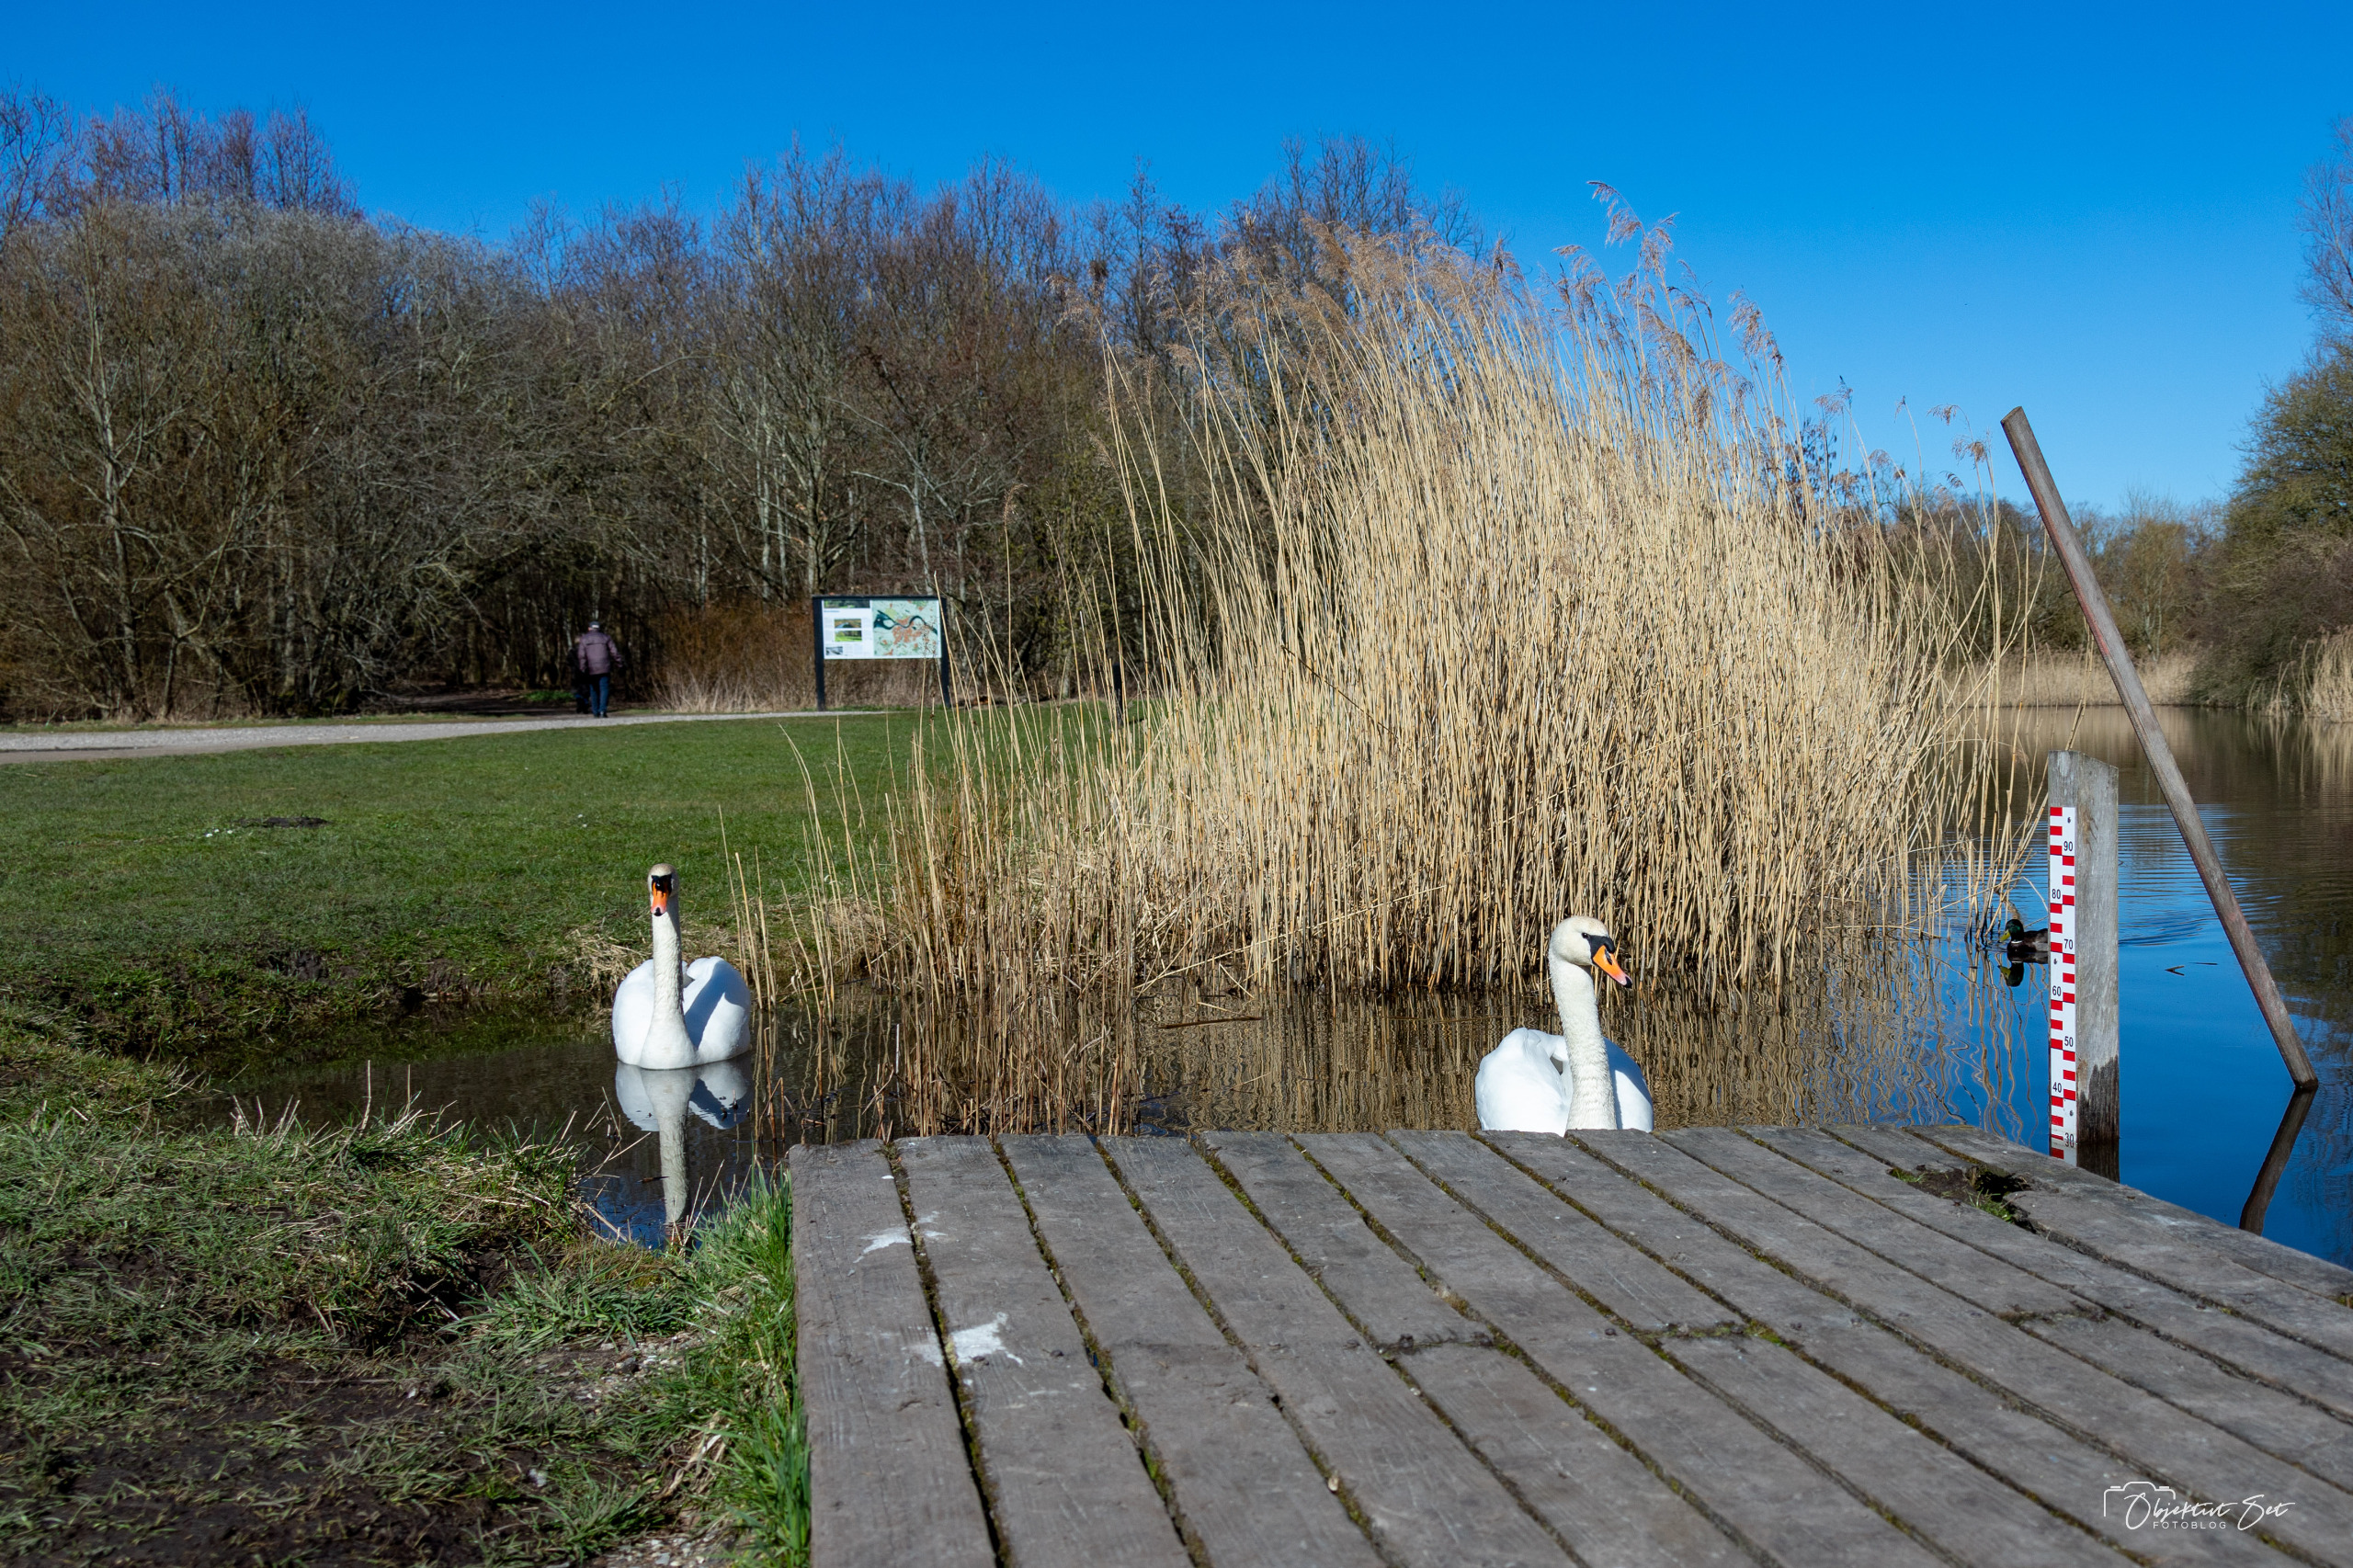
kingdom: Animalia
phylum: Chordata
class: Aves
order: Anseriformes
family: Anatidae
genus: Cygnus
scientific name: Cygnus olor
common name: Knopsvane
